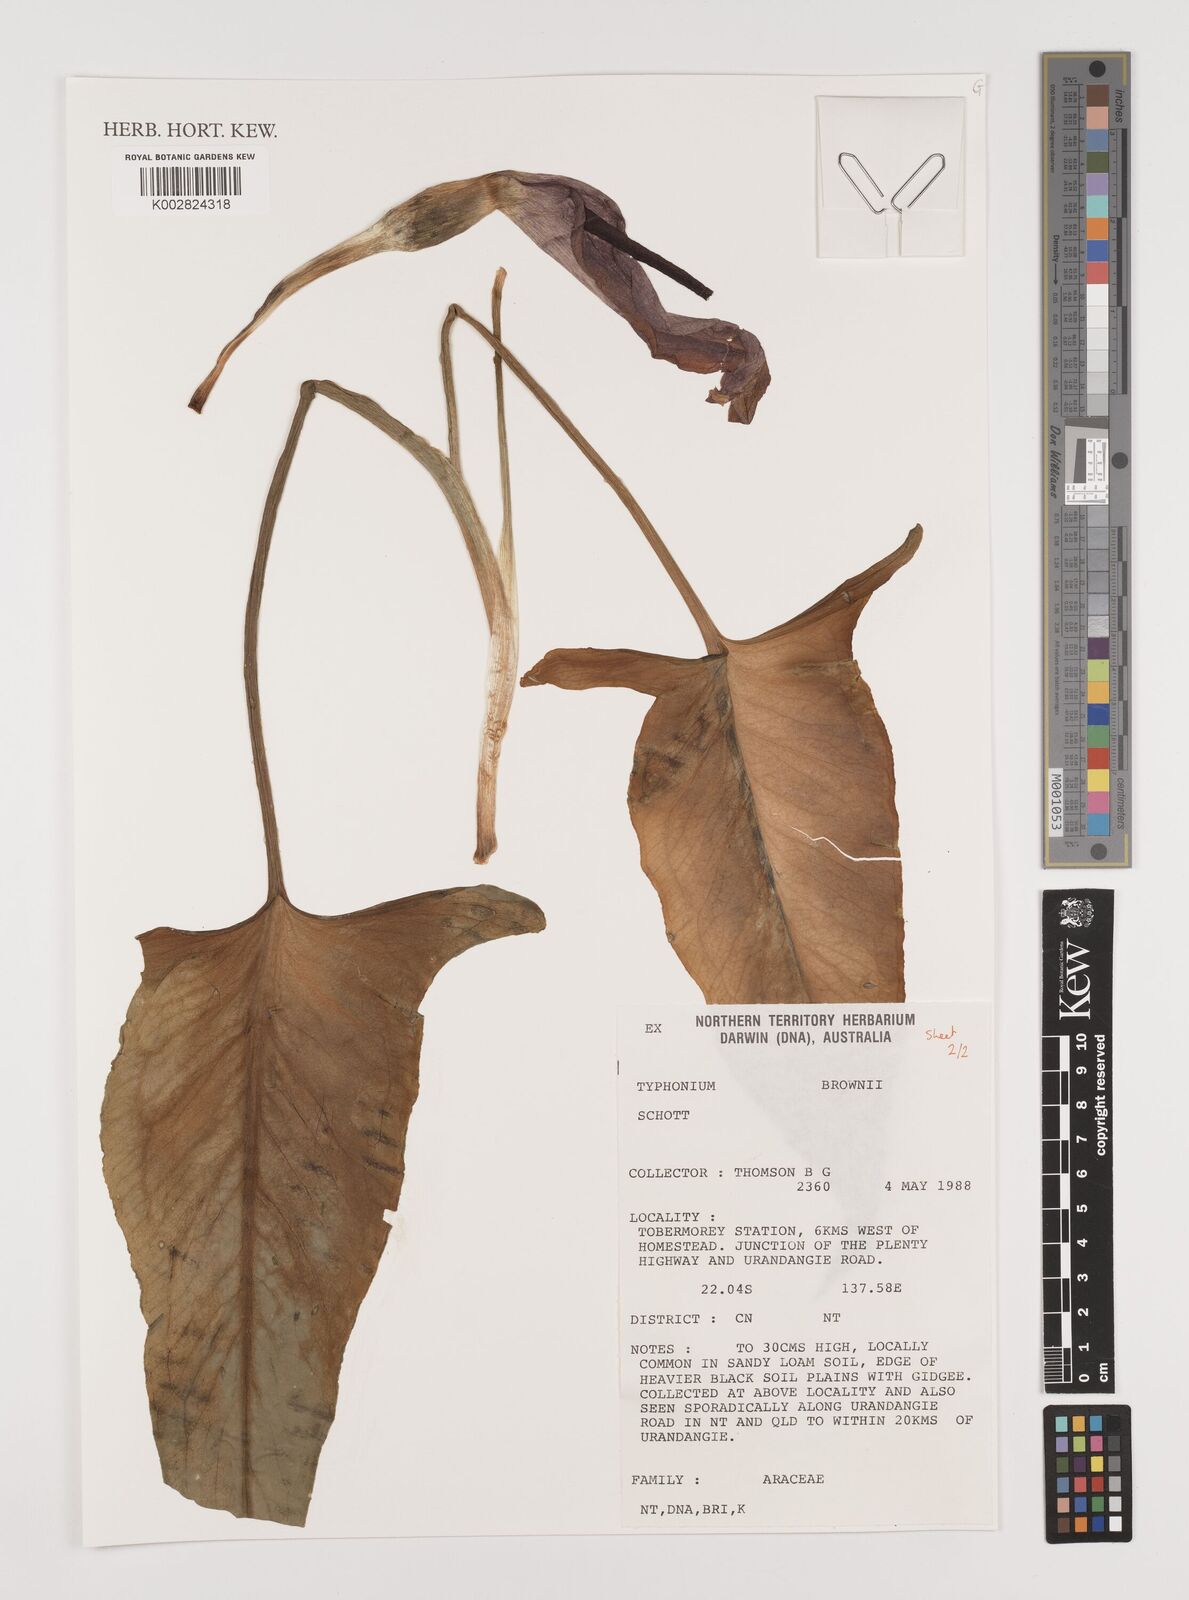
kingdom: Plantae
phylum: Tracheophyta
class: Liliopsida
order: Alismatales
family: Araceae
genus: Typhonium
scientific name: Typhonium brownii
